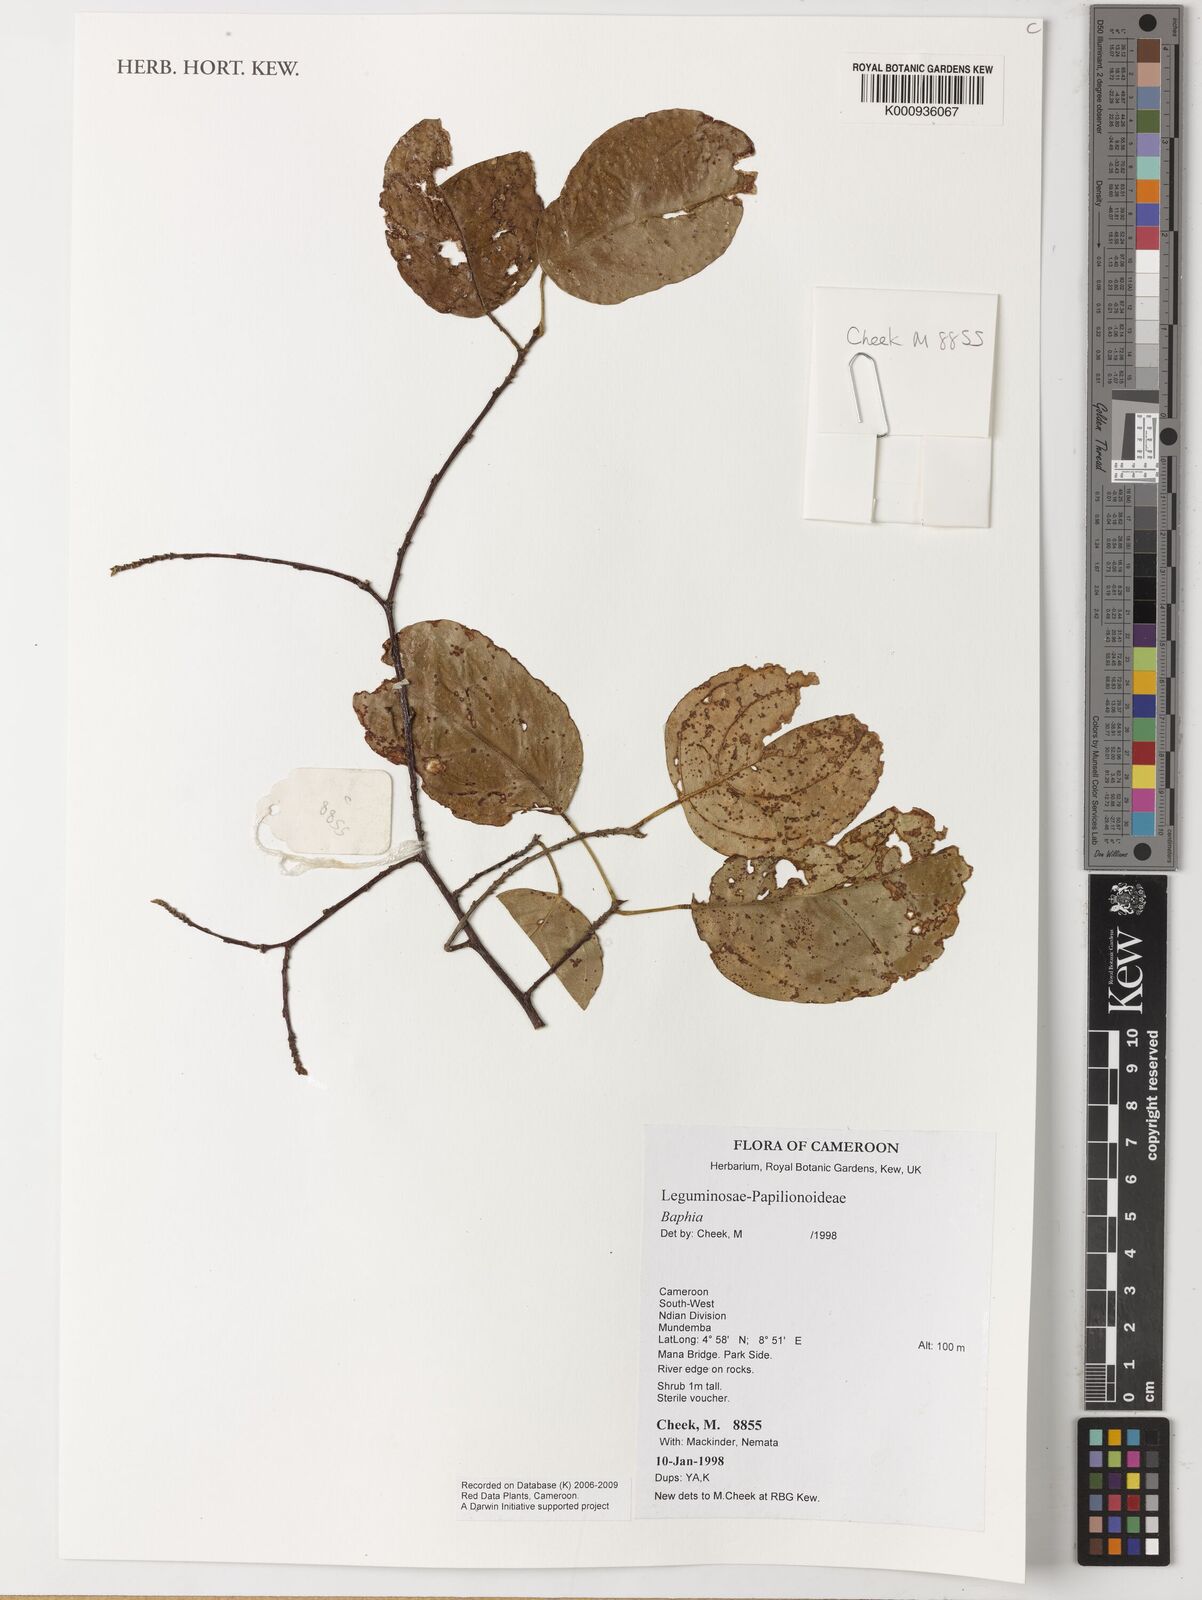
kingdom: Plantae
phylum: Tracheophyta
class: Magnoliopsida
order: Fabales
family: Fabaceae
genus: Baphia
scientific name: Baphia
